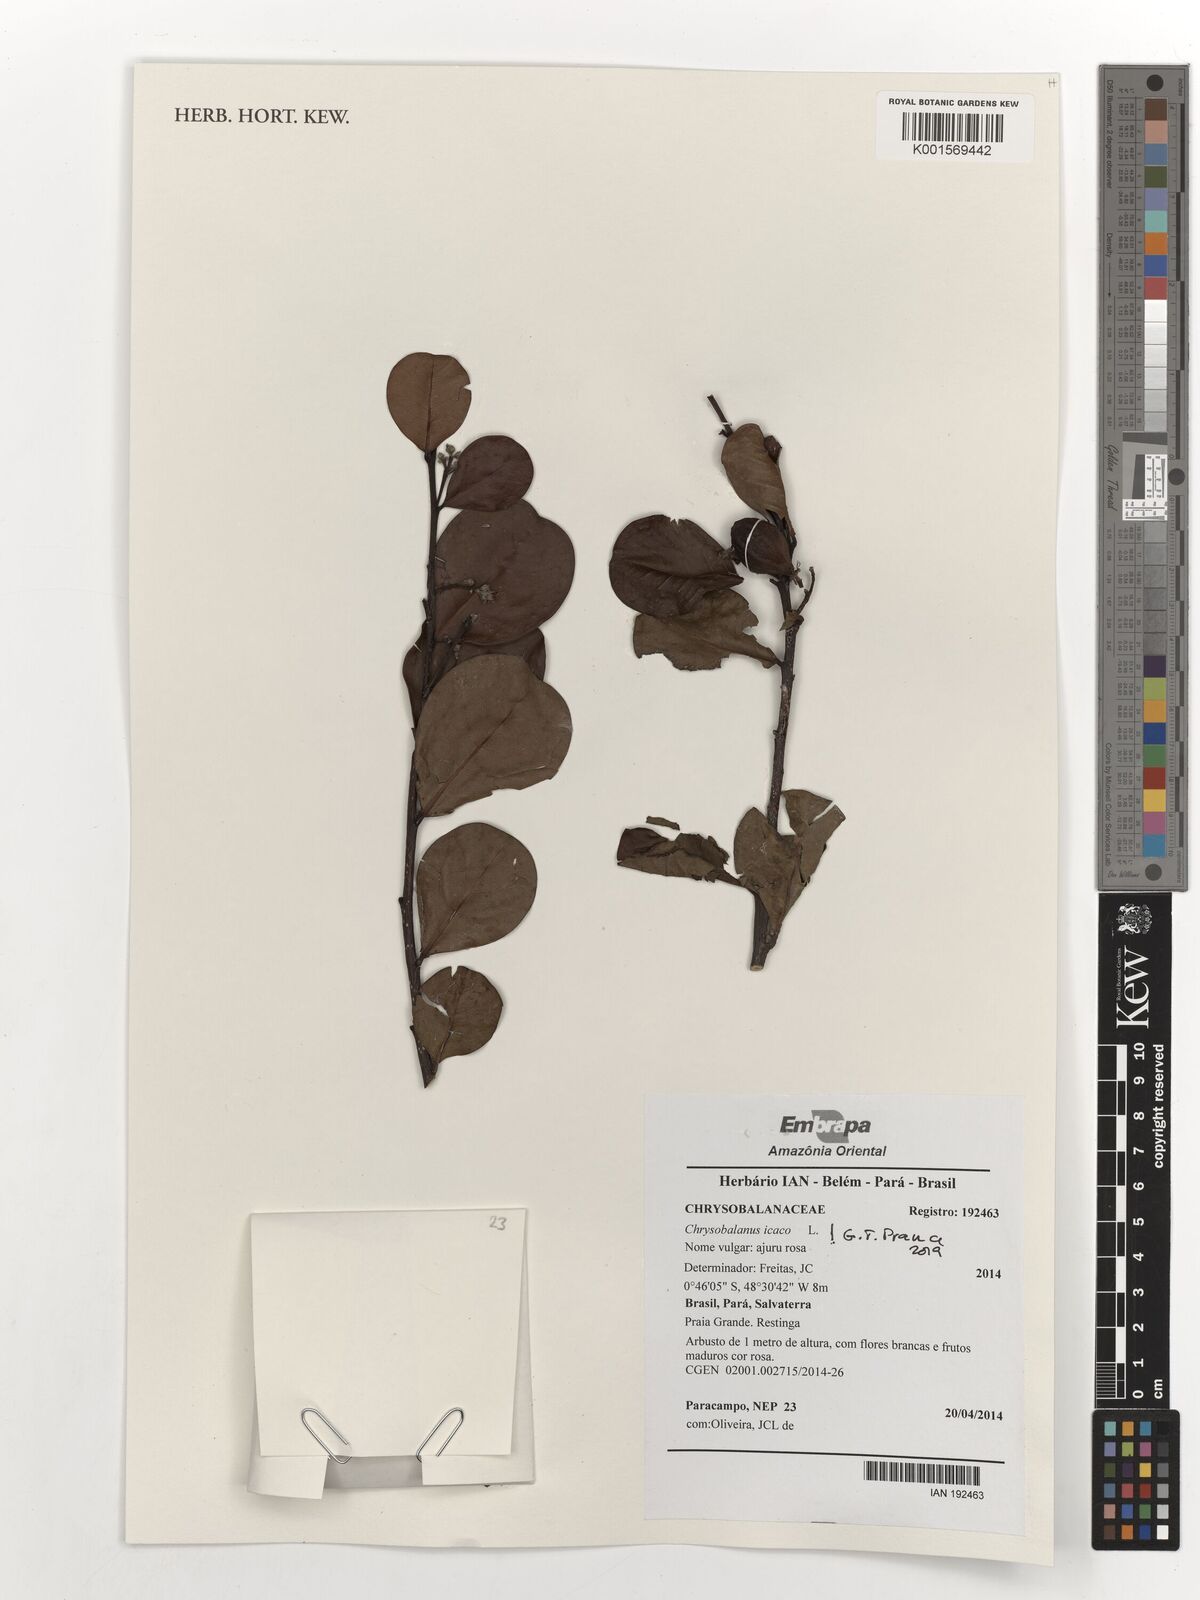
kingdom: Plantae
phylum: Tracheophyta
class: Magnoliopsida
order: Malpighiales
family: Chrysobalanaceae
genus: Chrysobalanus
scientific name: Chrysobalanus icaco
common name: Coco plum
